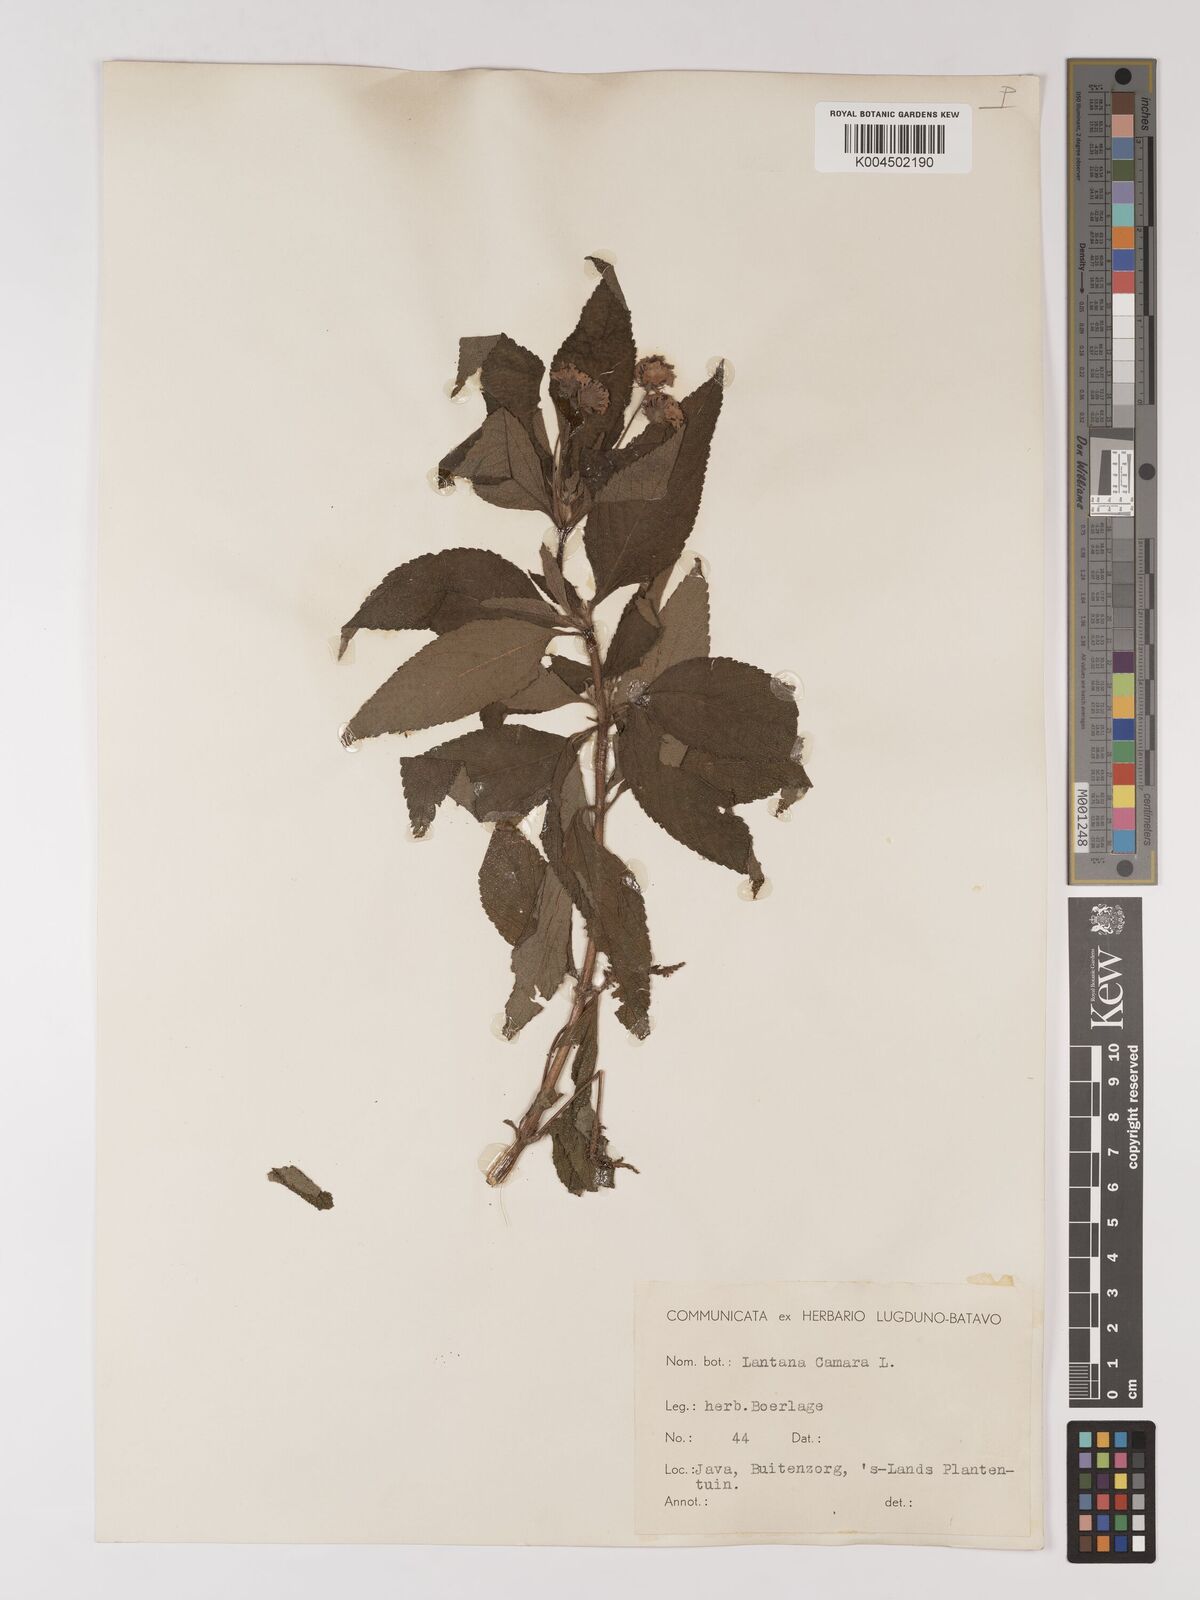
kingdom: Plantae
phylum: Tracheophyta
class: Magnoliopsida
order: Lamiales
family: Verbenaceae
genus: Lantana
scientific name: Lantana trifolia
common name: Sweet-sage
